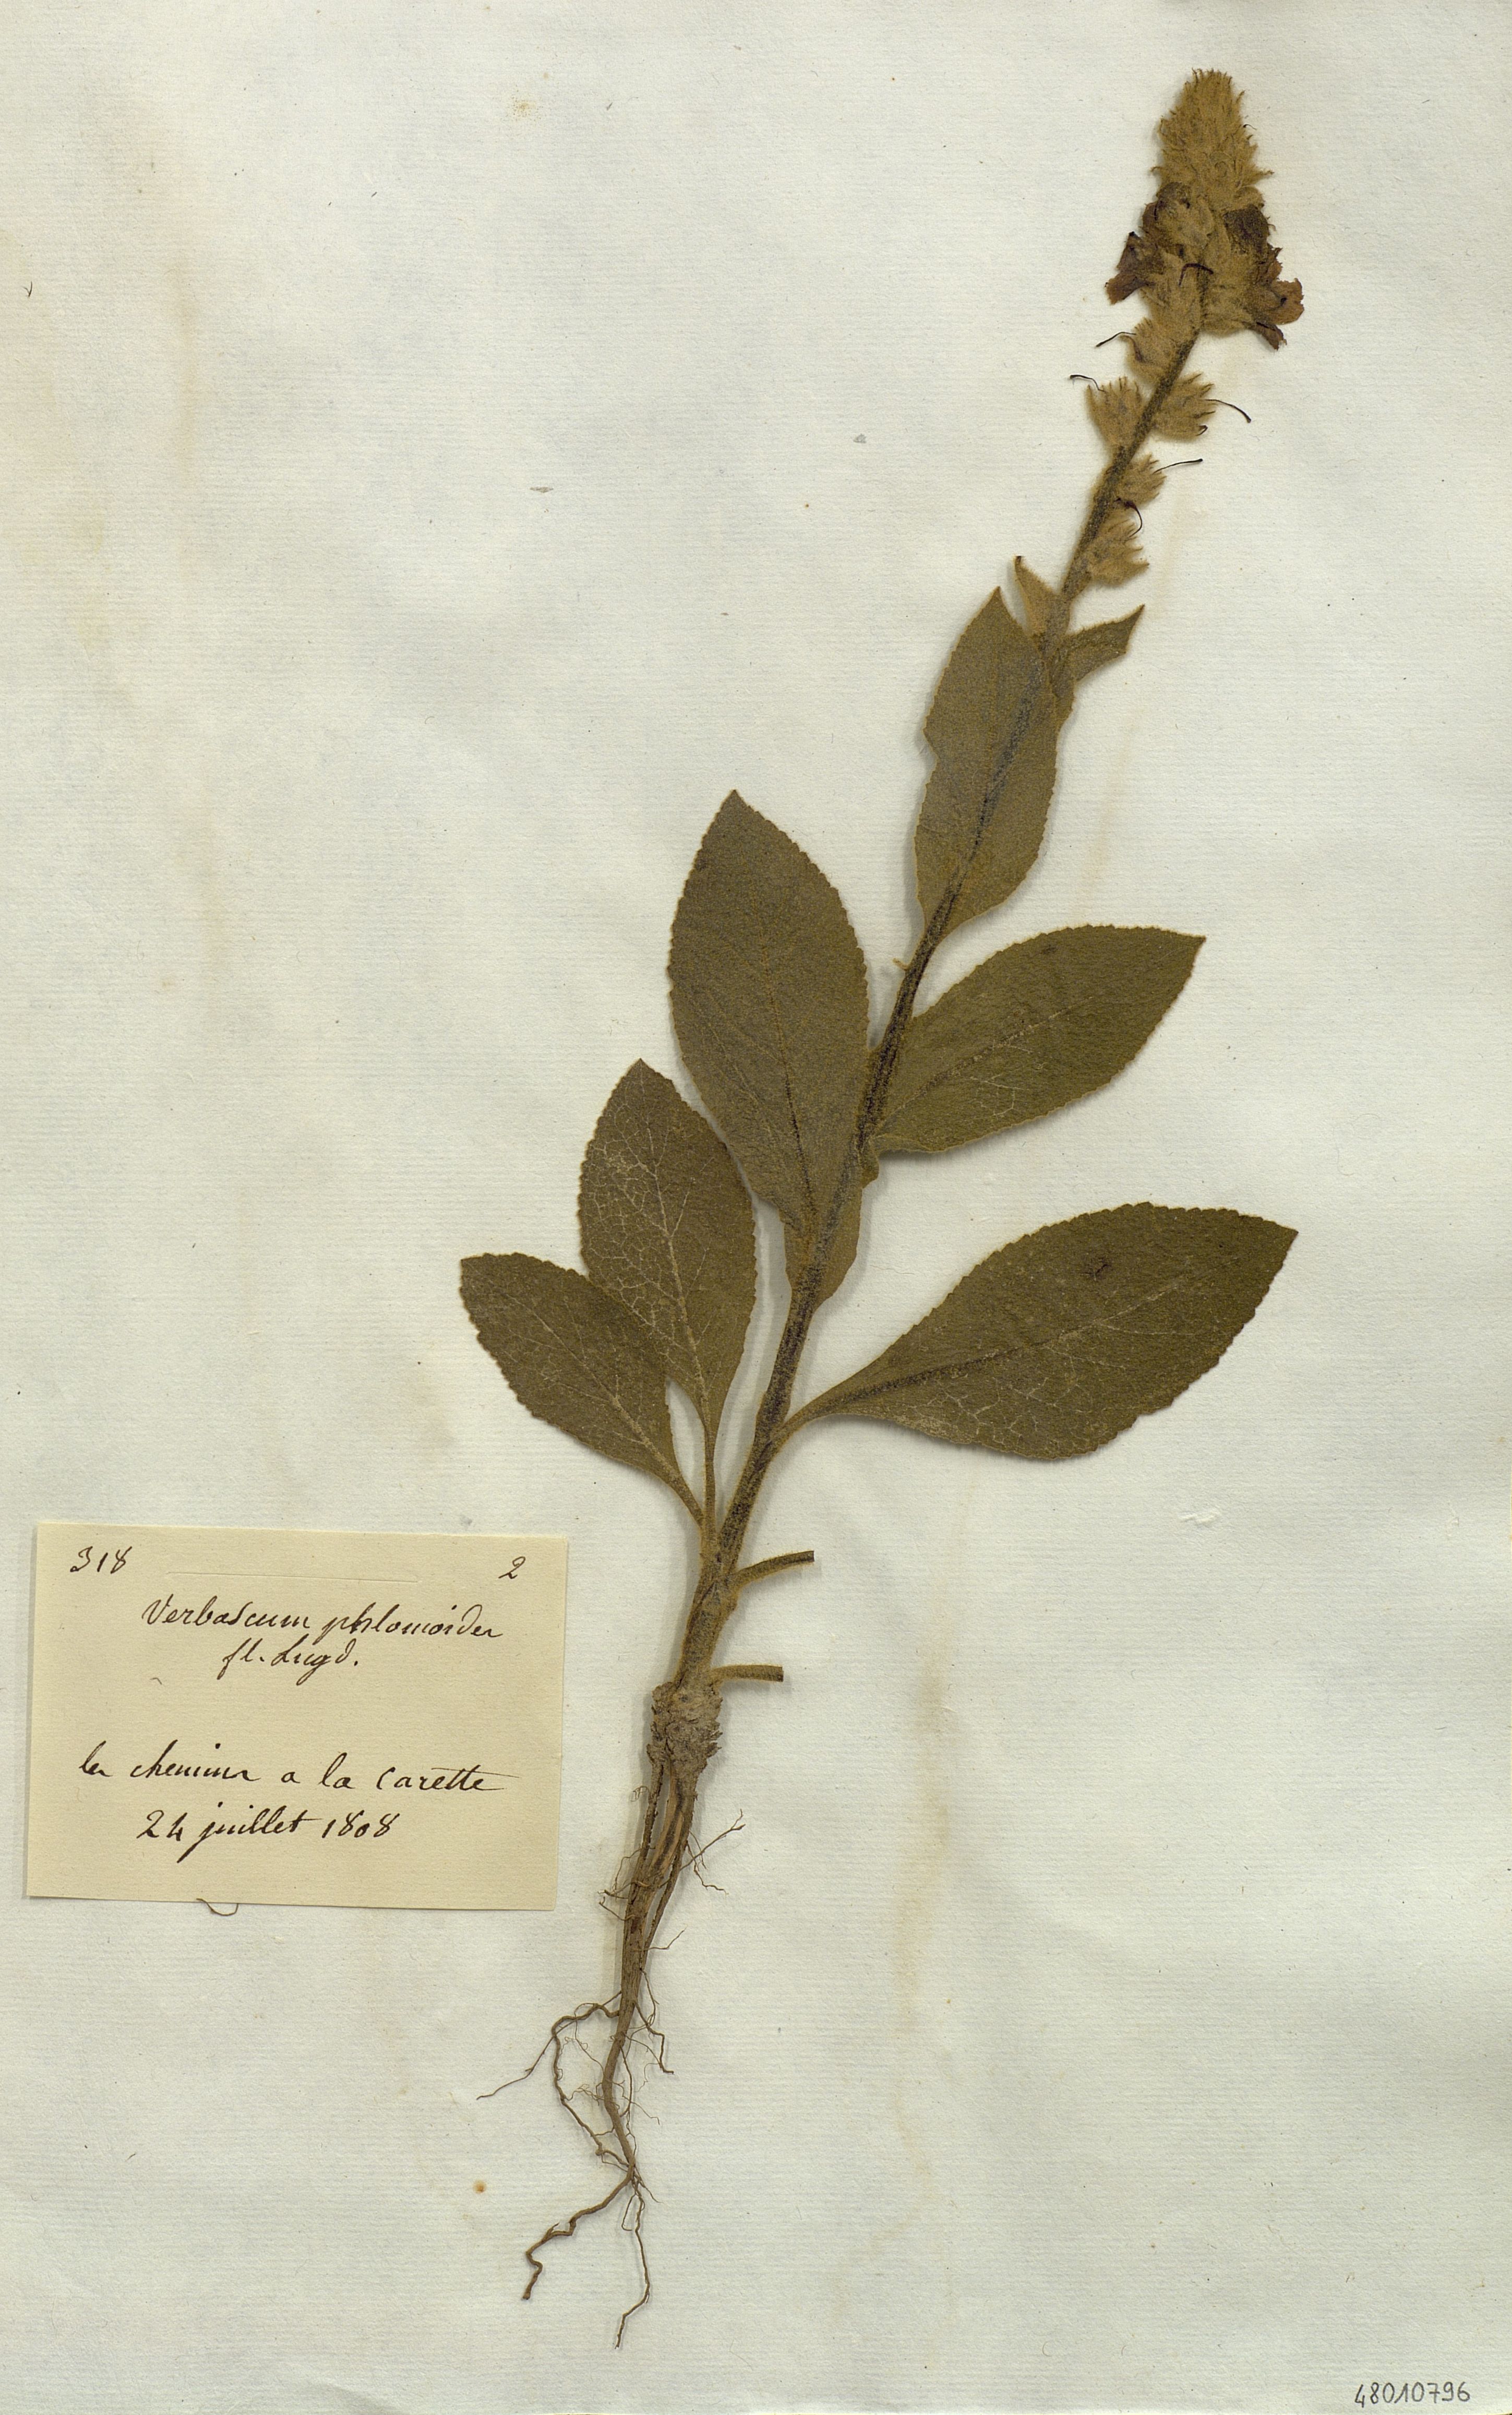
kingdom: Plantae
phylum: Tracheophyta
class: Magnoliopsida
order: Lamiales
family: Scrophulariaceae
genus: Verbascum
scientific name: Verbascum phlomoides
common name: Orange mullein
